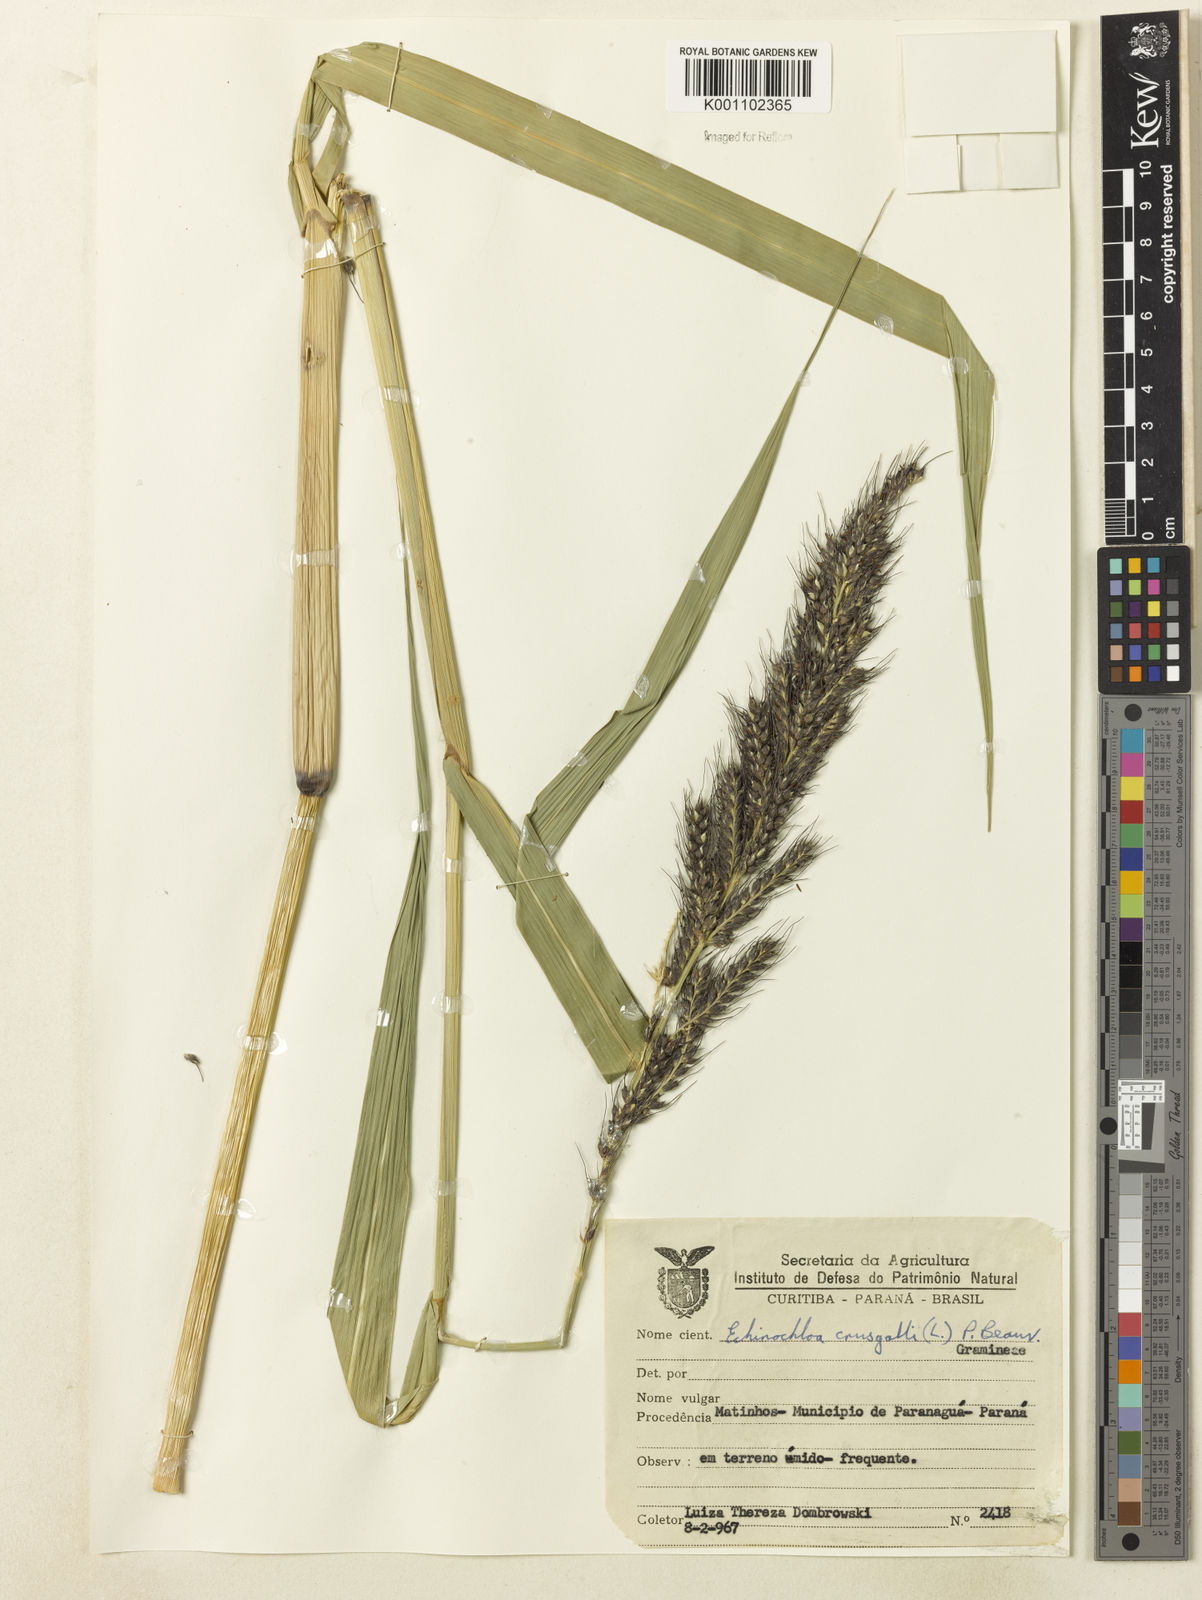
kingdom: Plantae
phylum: Tracheophyta
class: Liliopsida
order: Poales
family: Poaceae
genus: Echinochloa
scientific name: Echinochloa polystachya
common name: Creeping river grass
